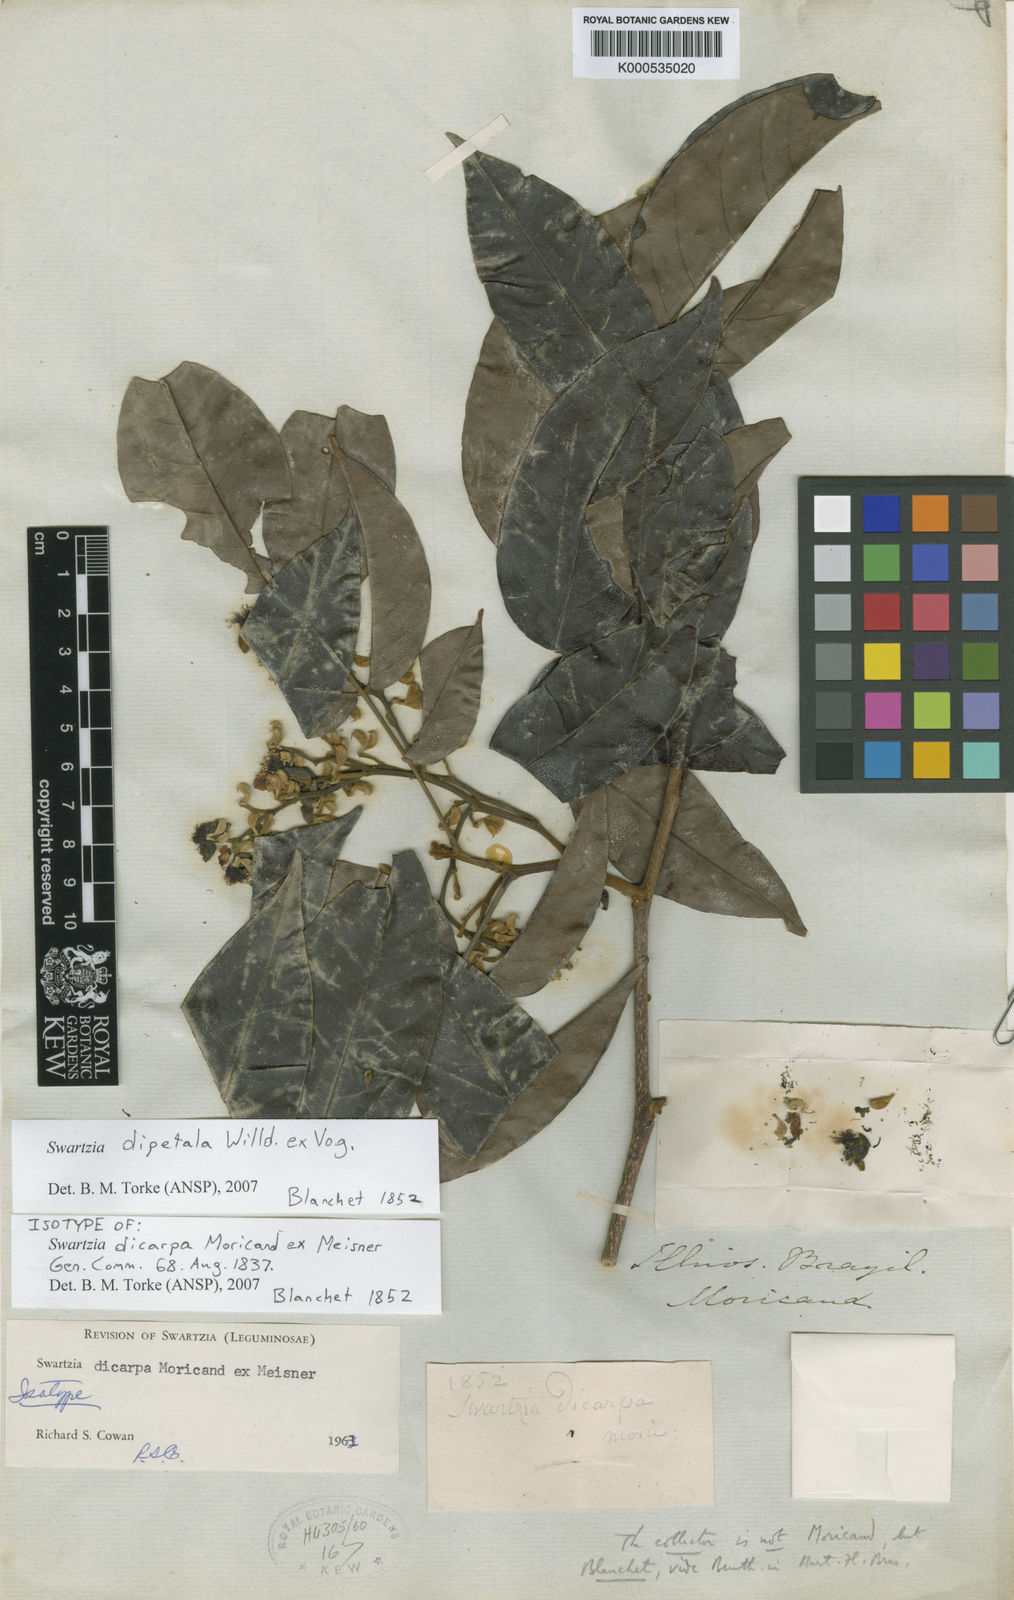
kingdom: Plantae
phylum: Tracheophyta
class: Magnoliopsida
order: Fabales
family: Fabaceae
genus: Swartzia
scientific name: Swartzia dipetala
